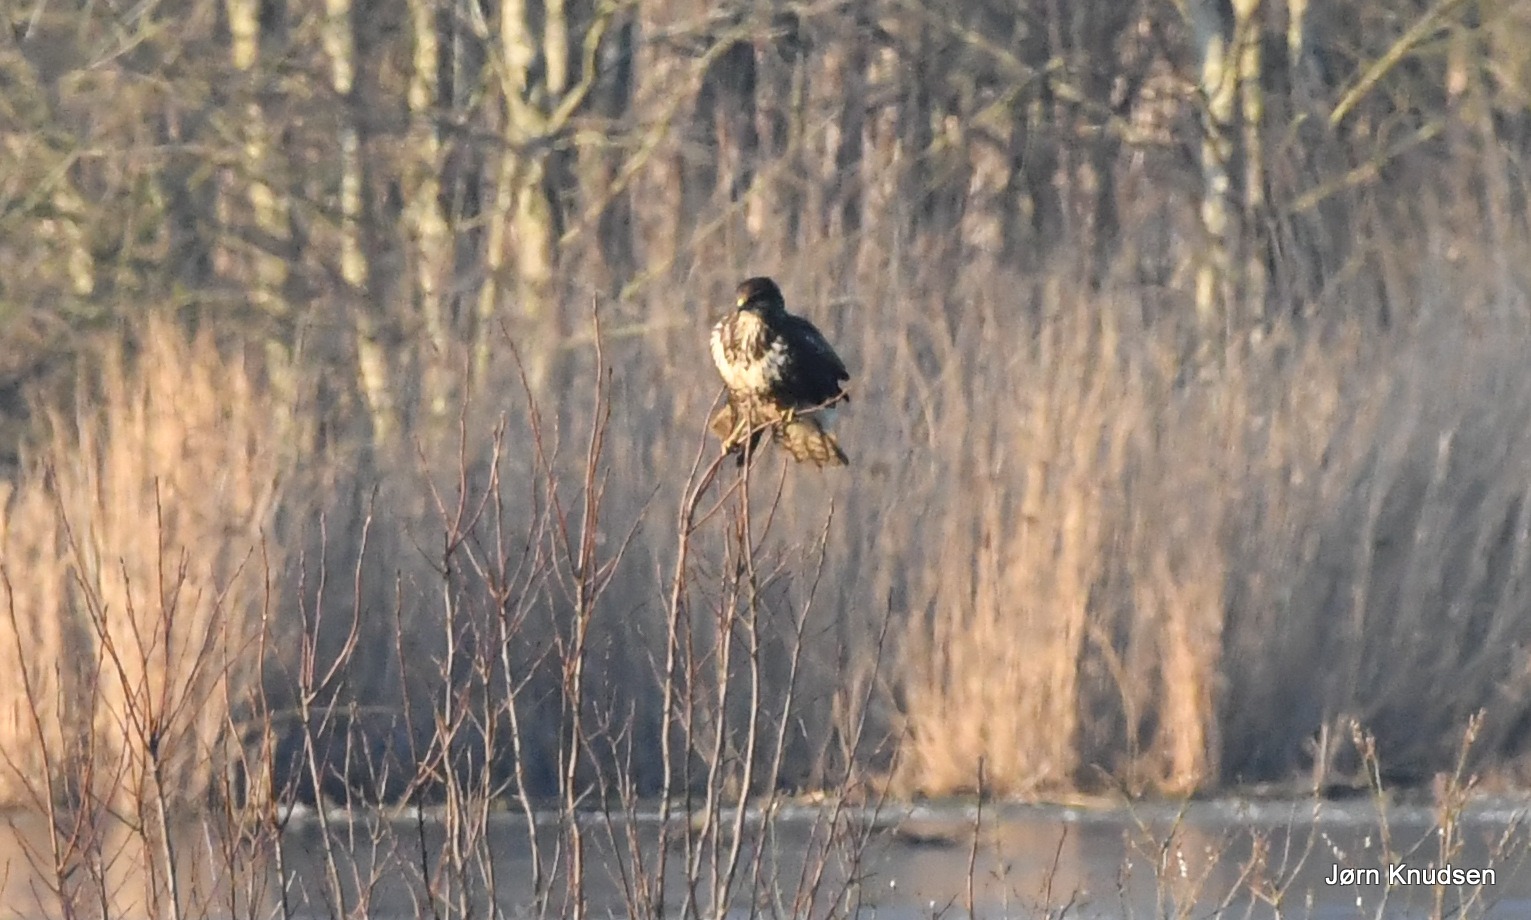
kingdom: Animalia
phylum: Chordata
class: Aves
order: Accipitriformes
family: Accipitridae
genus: Buteo
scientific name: Buteo buteo
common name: Musvåge
